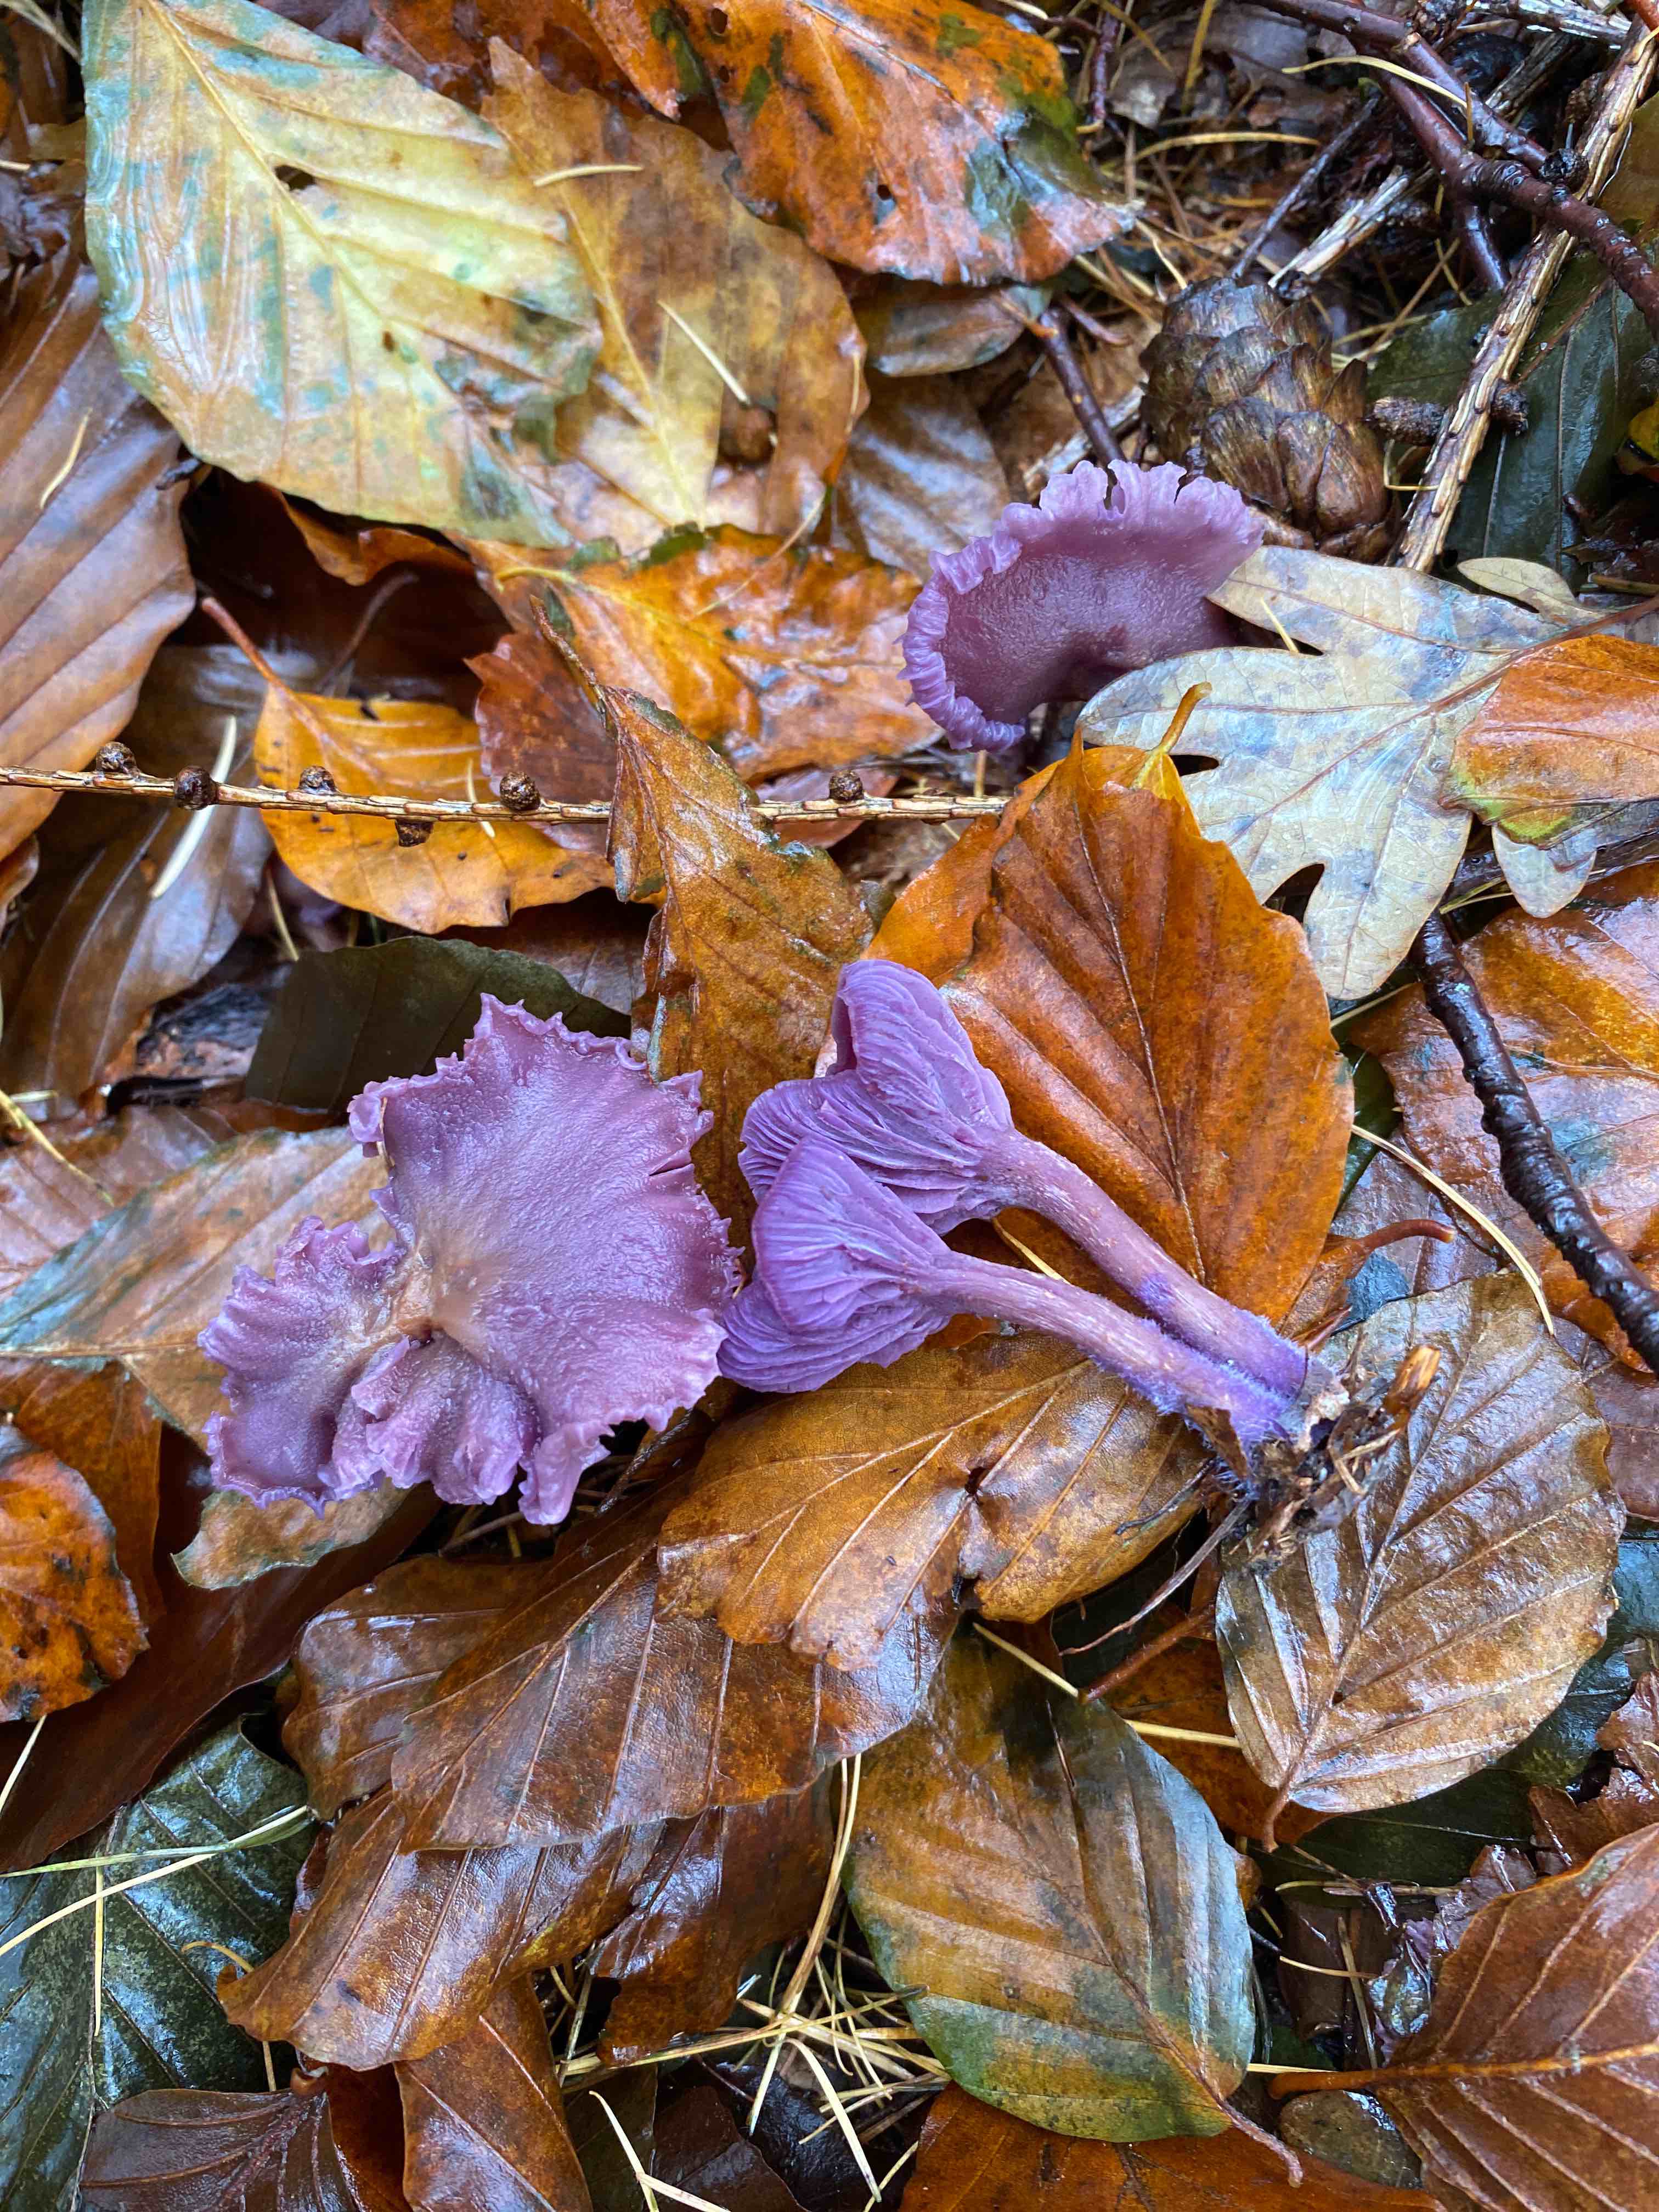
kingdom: Fungi
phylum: Basidiomycota
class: Agaricomycetes
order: Agaricales
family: Hydnangiaceae
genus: Laccaria
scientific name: Laccaria amethystina
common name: violet ametysthat
